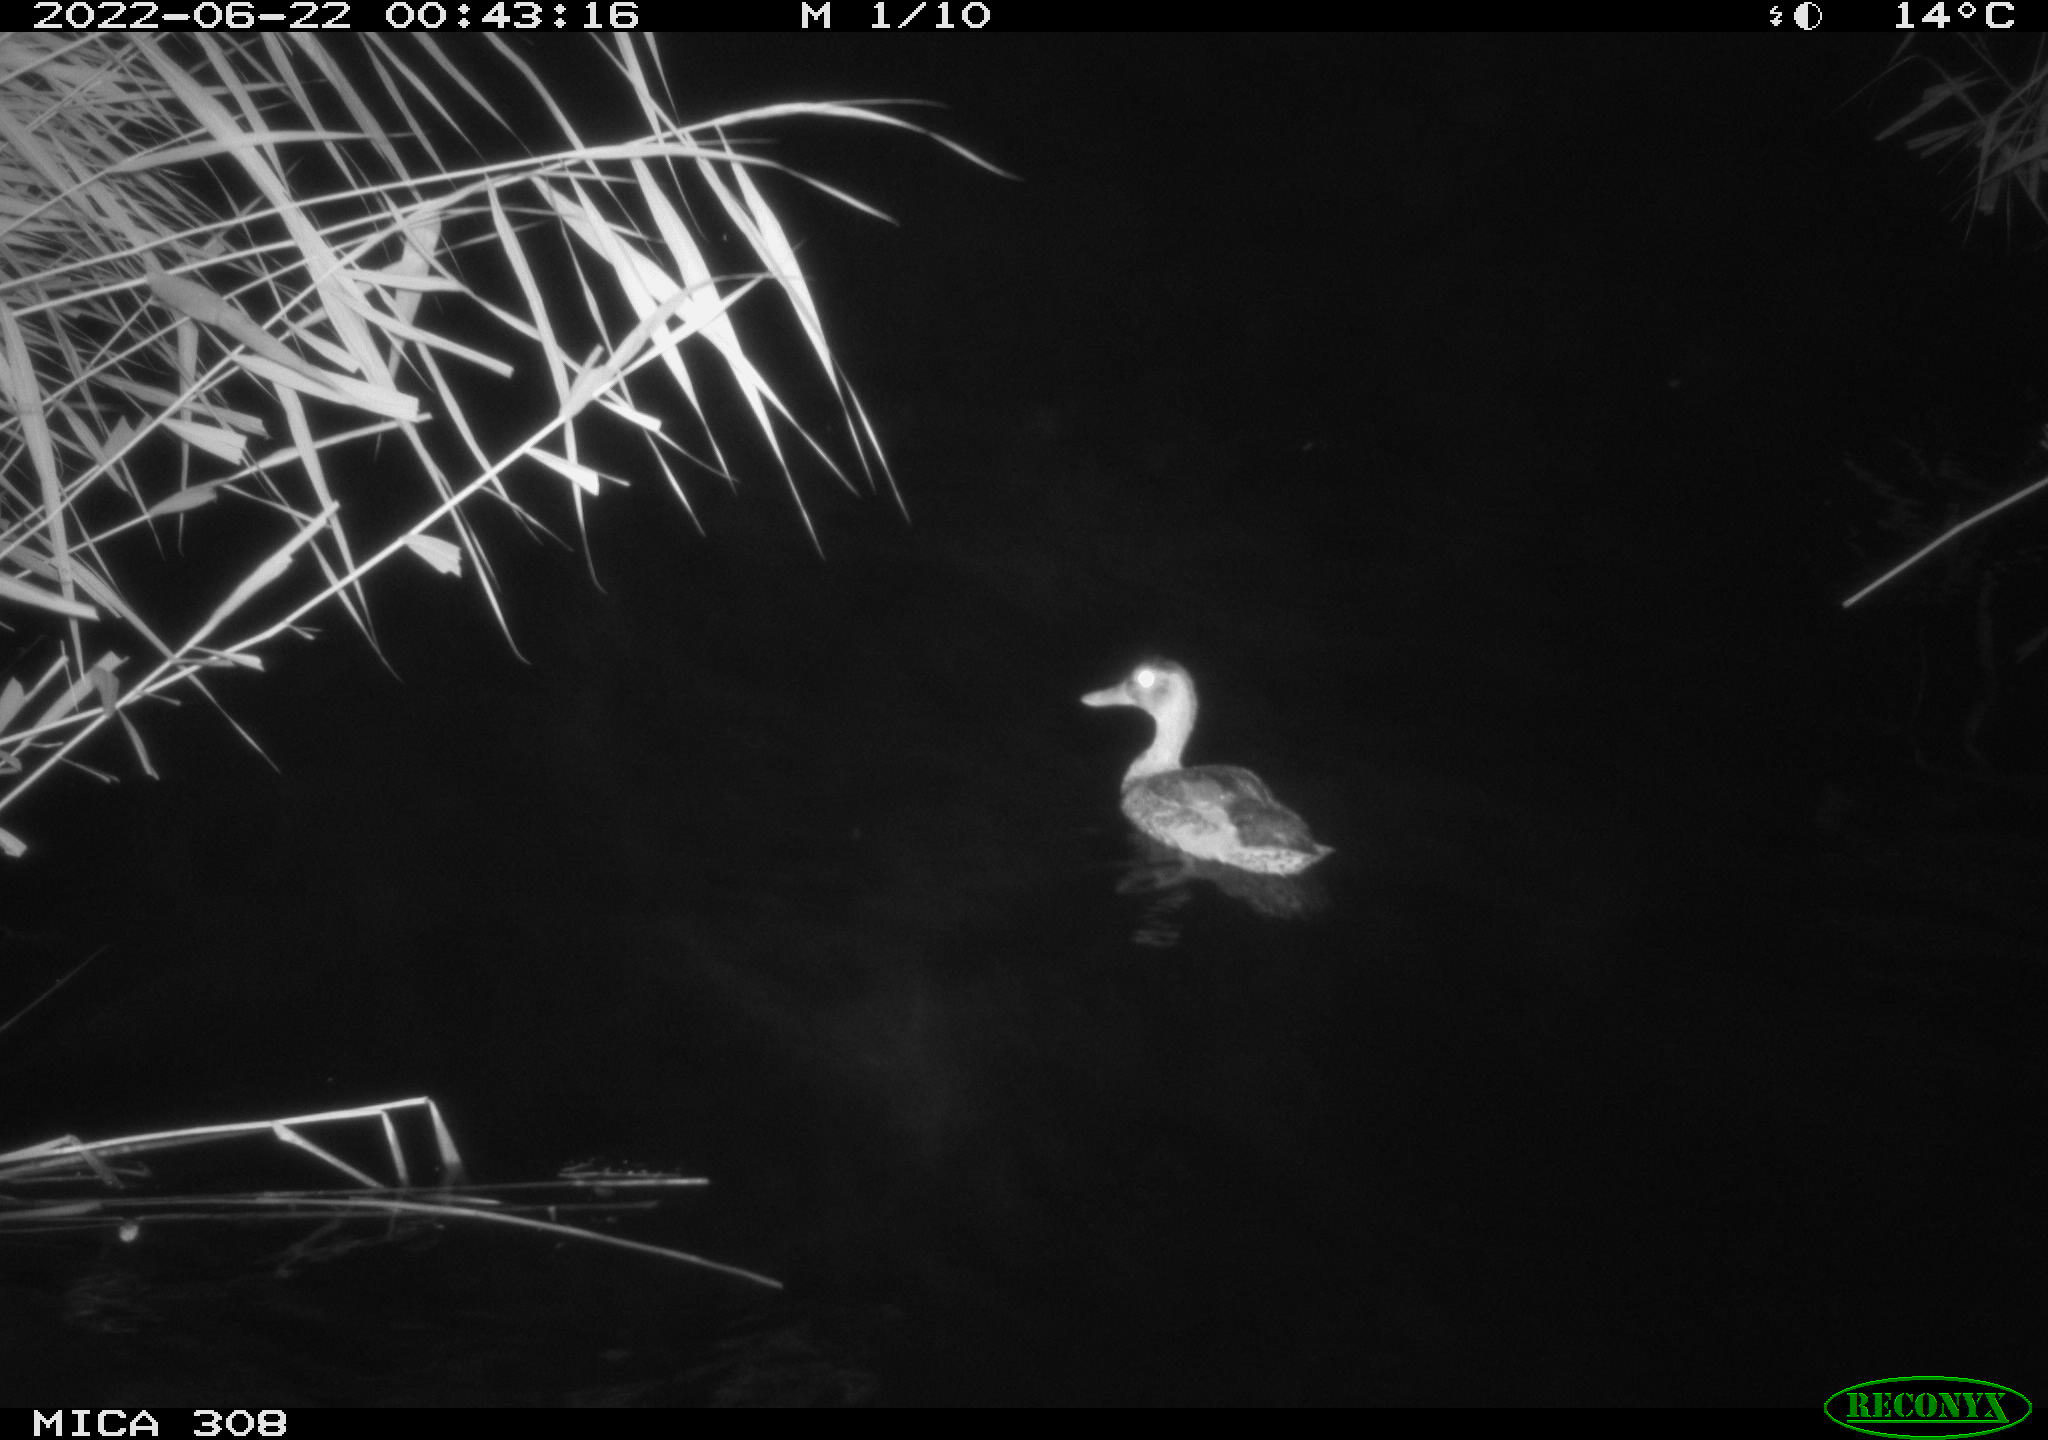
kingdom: Animalia
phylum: Chordata
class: Aves
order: Anseriformes
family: Anatidae
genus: Anas
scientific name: Anas platyrhynchos
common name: Mallard
